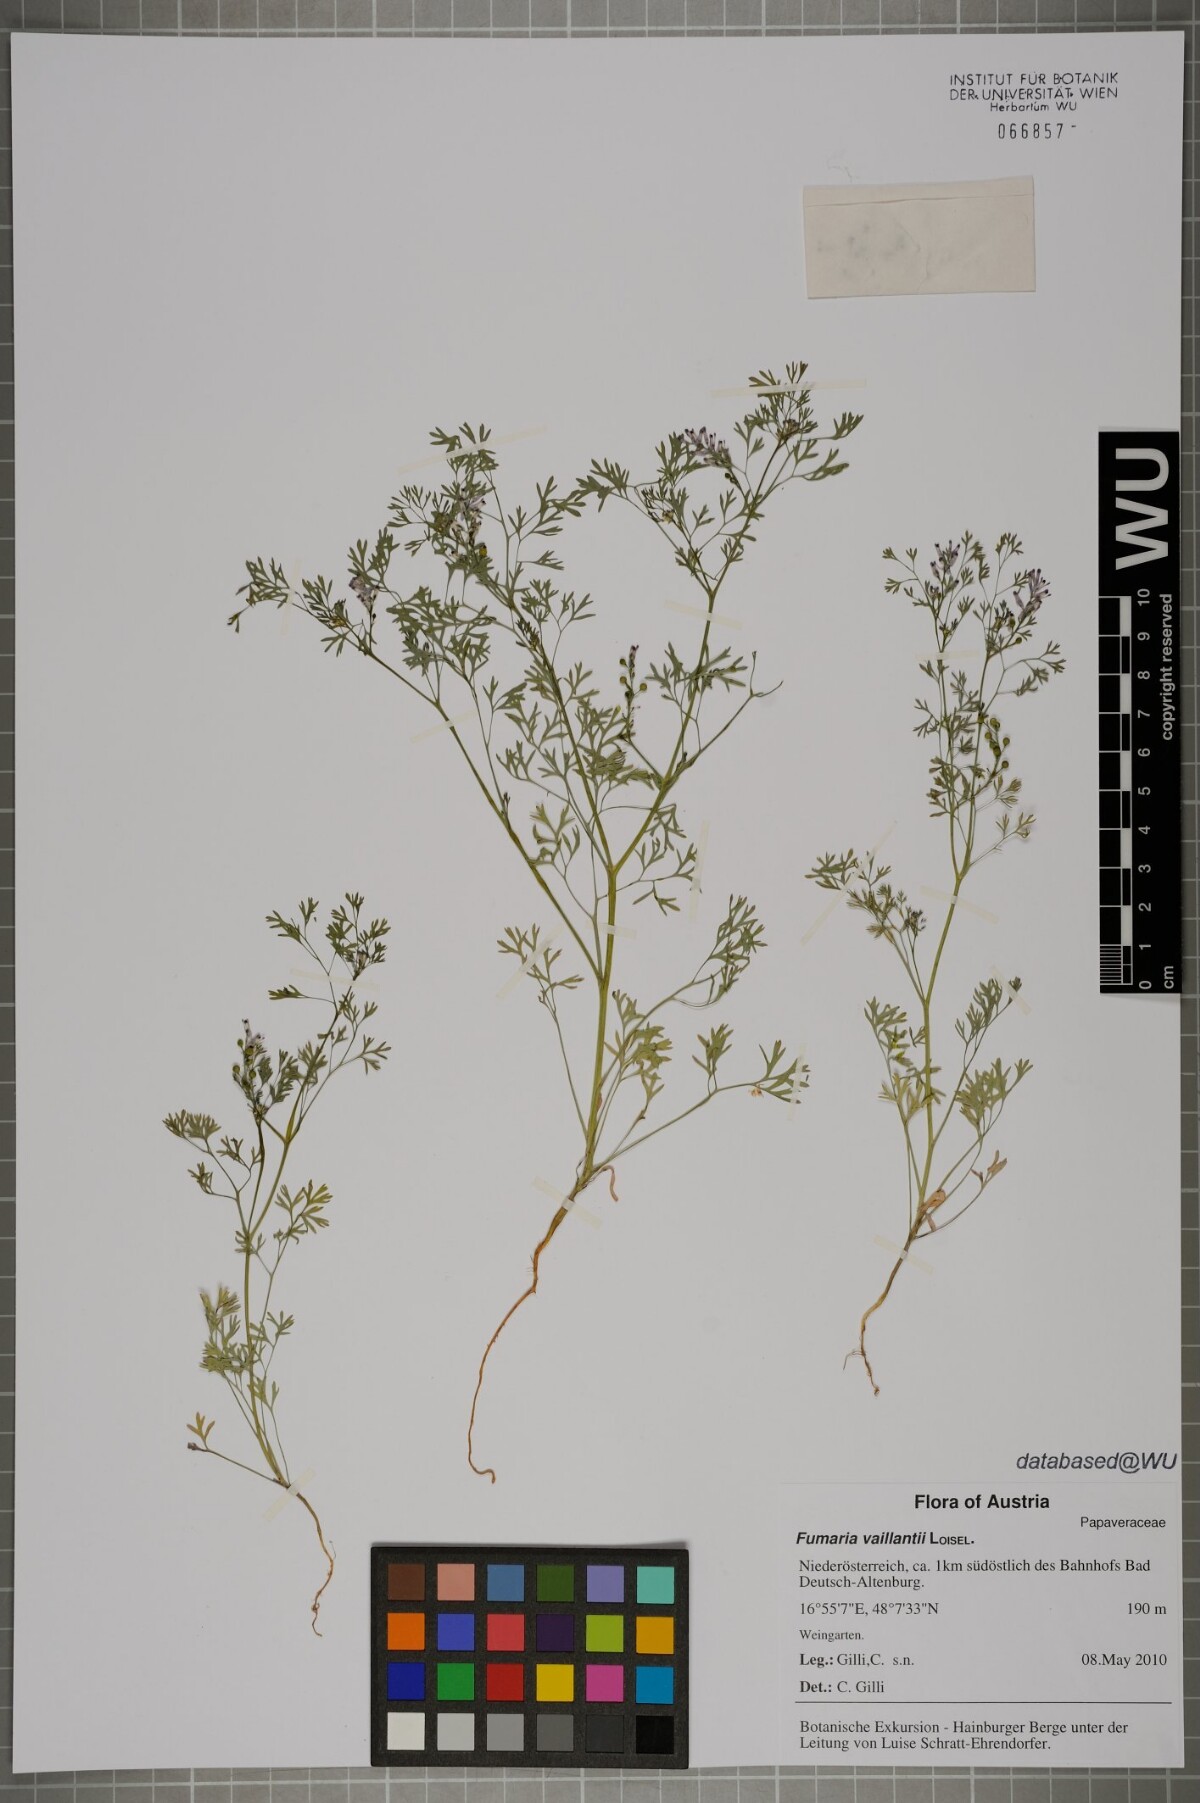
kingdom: Plantae
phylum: Tracheophyta
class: Magnoliopsida
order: Ranunculales
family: Papaveraceae
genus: Fumaria
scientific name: Fumaria vaillantii
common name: Few-flowered fumitory
